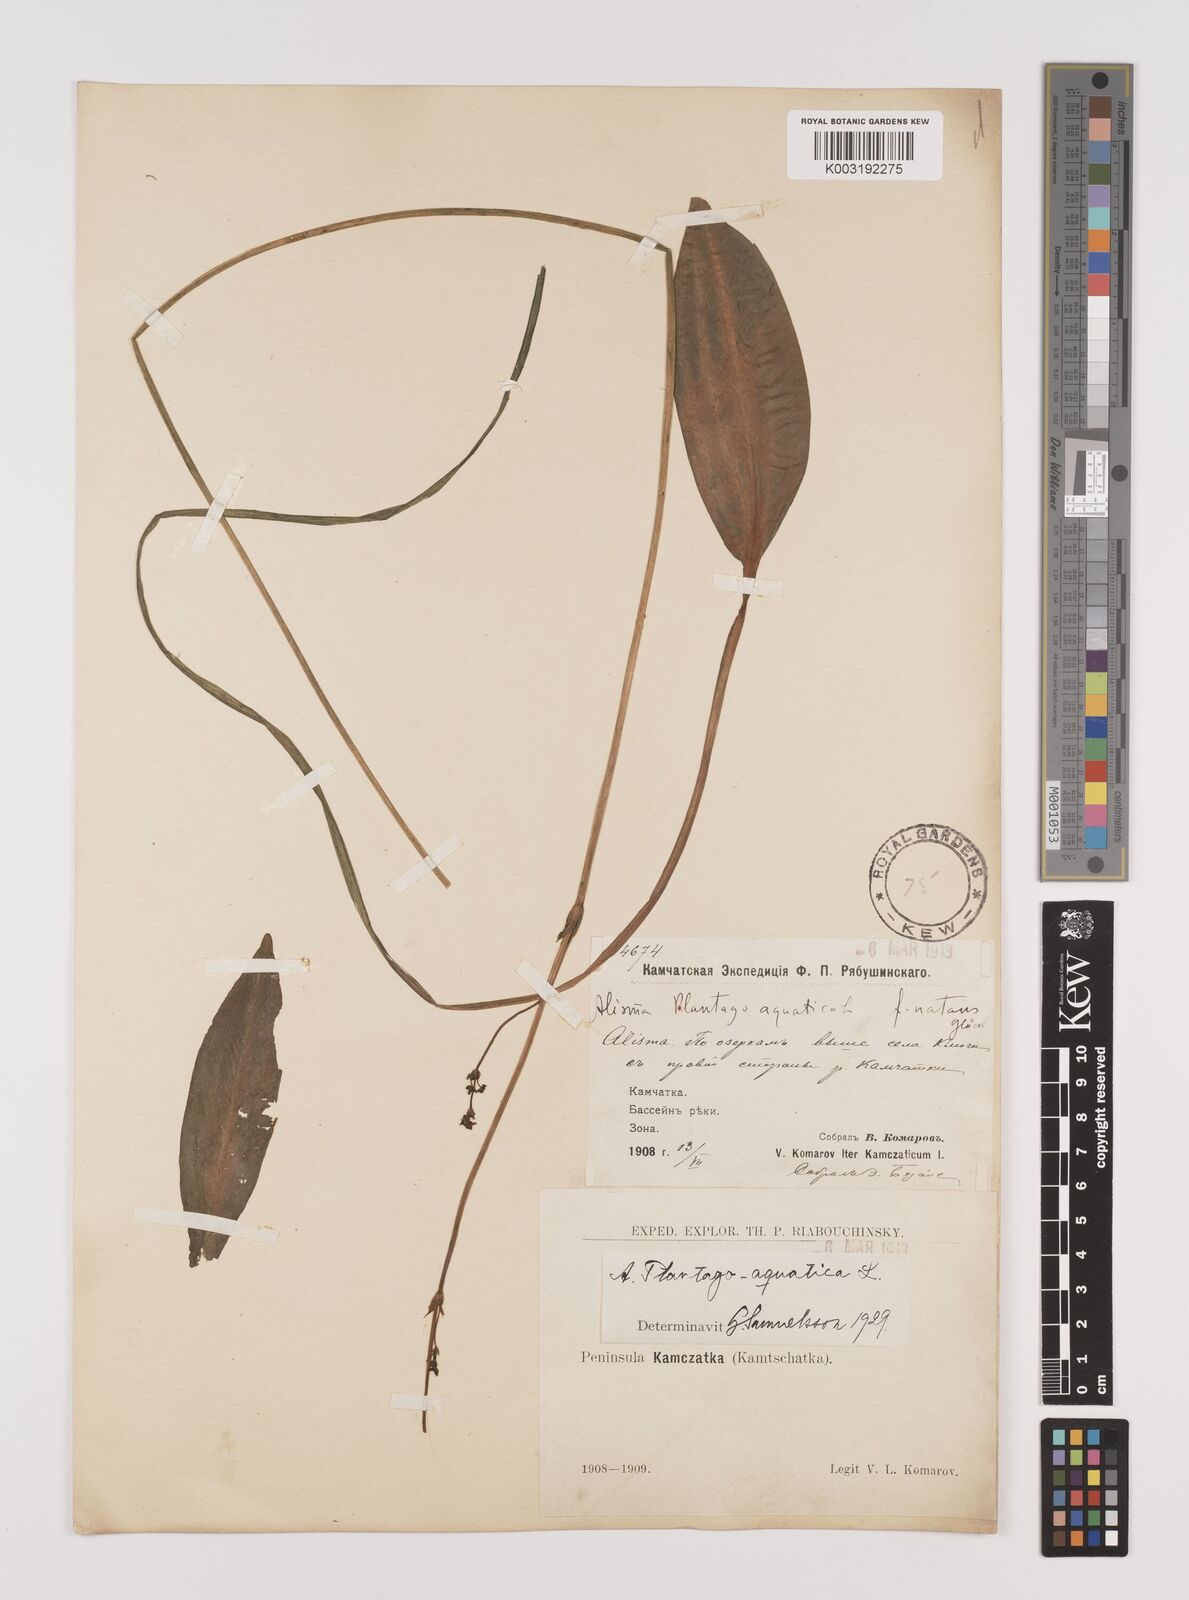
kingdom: Plantae
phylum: Tracheophyta
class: Liliopsida
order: Alismatales
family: Alismataceae
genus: Alisma
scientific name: Alisma plantago-aquatica
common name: Water-plantain
